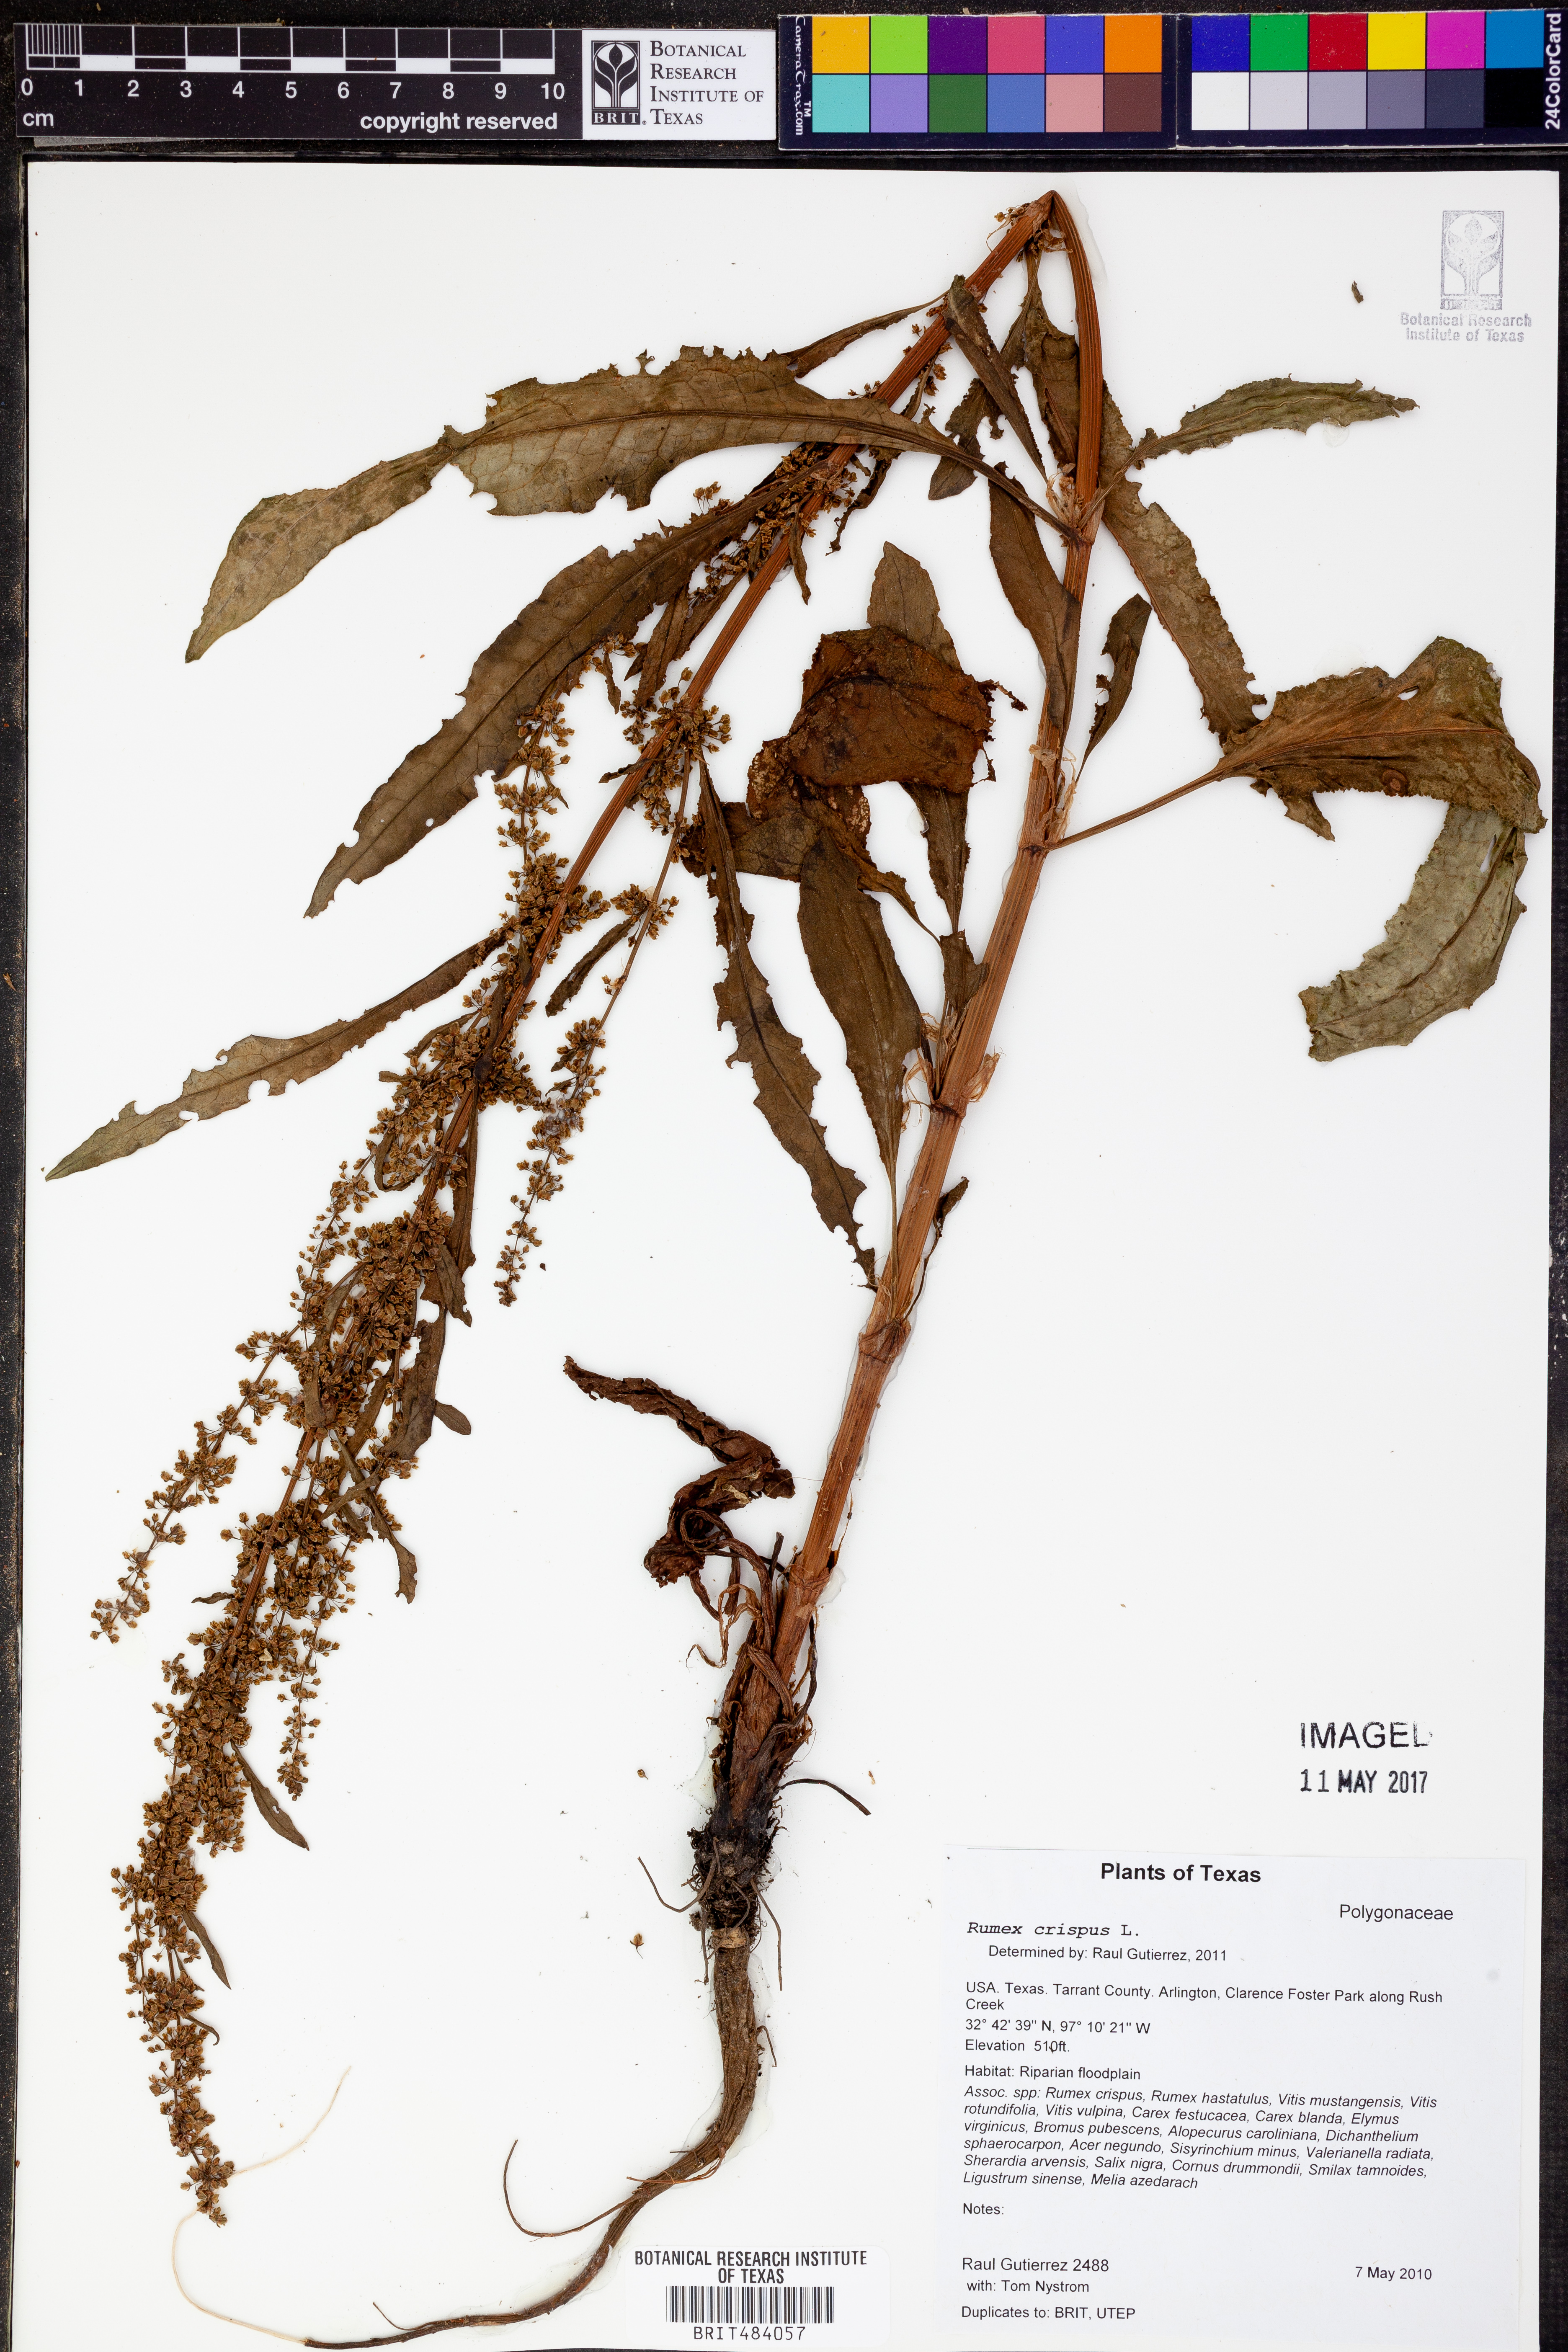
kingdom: Plantae
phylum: Tracheophyta
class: Magnoliopsida
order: Caryophyllales
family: Polygonaceae
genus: Rumex
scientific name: Rumex crispus
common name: Curled dock
